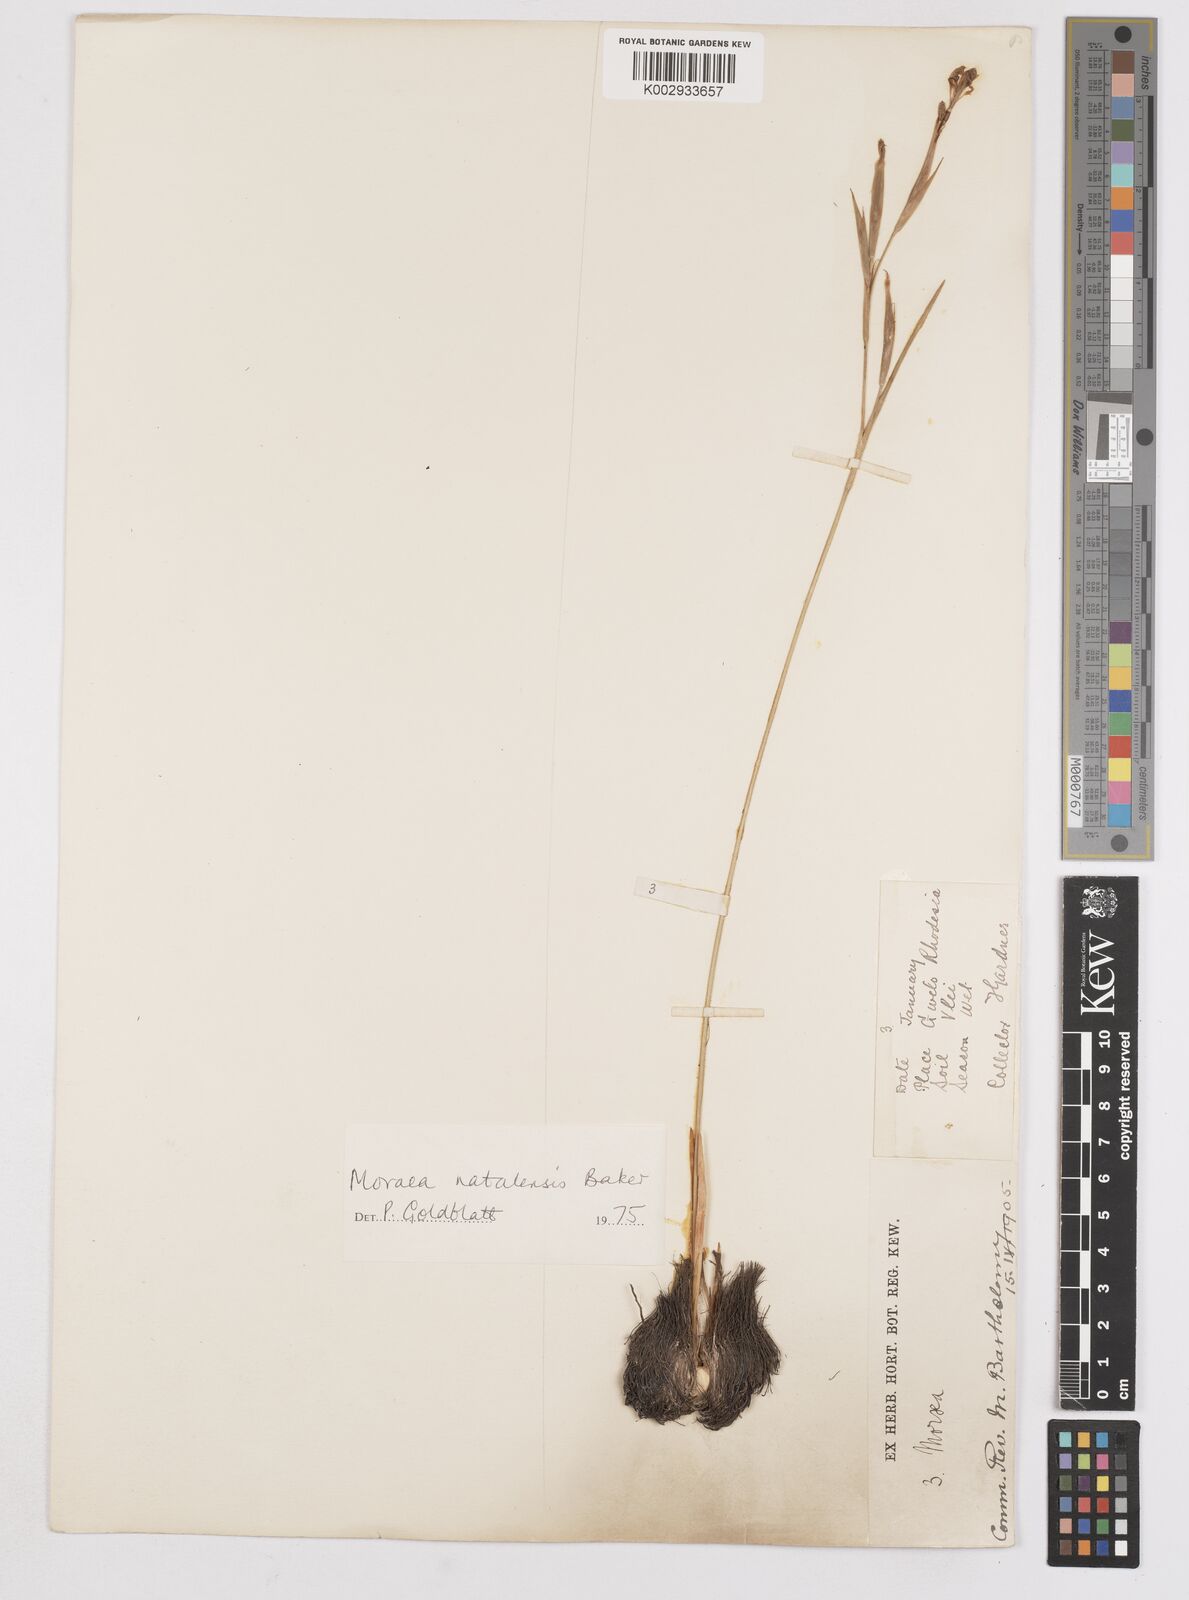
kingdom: Plantae
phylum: Tracheophyta
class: Liliopsida
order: Asparagales
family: Iridaceae
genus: Moraea
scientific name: Moraea natalensis
